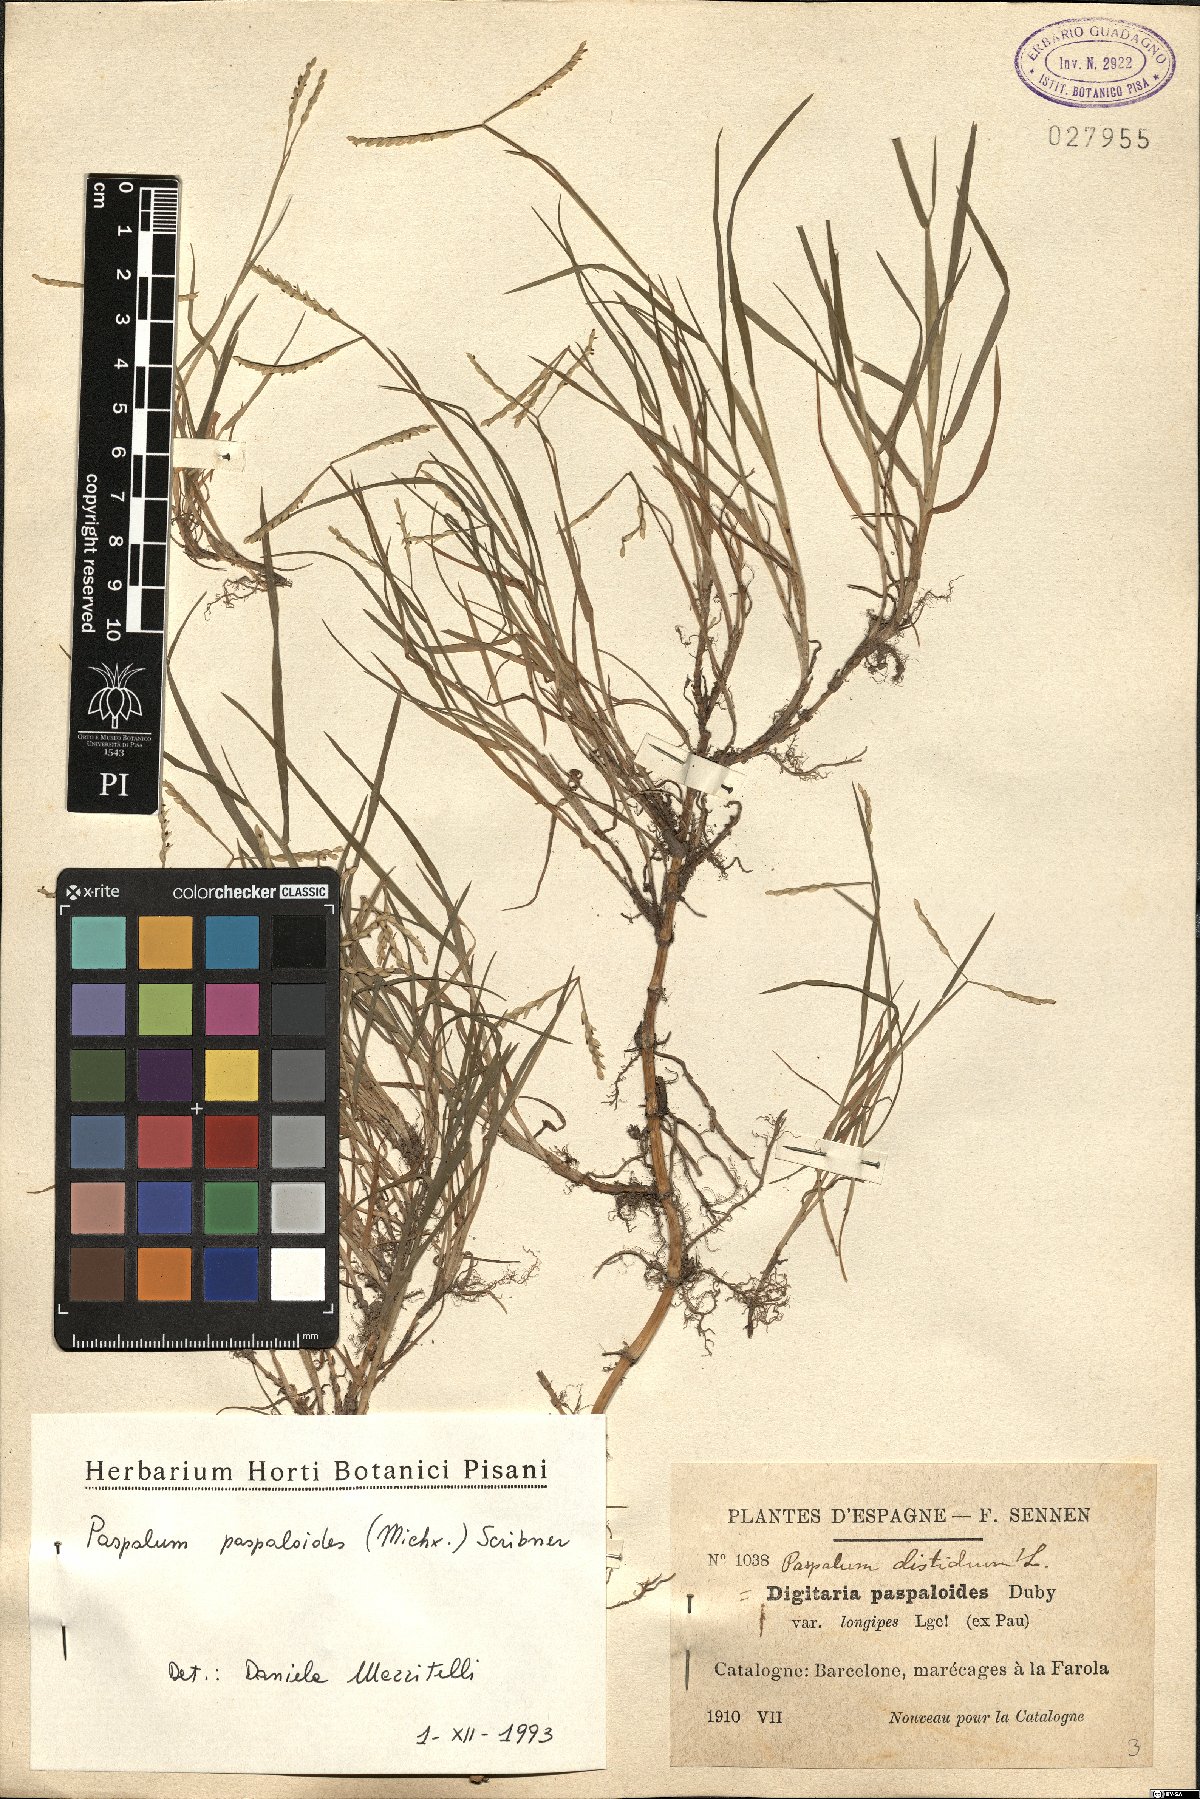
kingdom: Plantae
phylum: Tracheophyta
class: Liliopsida
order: Poales
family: Poaceae
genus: Paspalum
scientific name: Paspalum distichum
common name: Knotgrass
